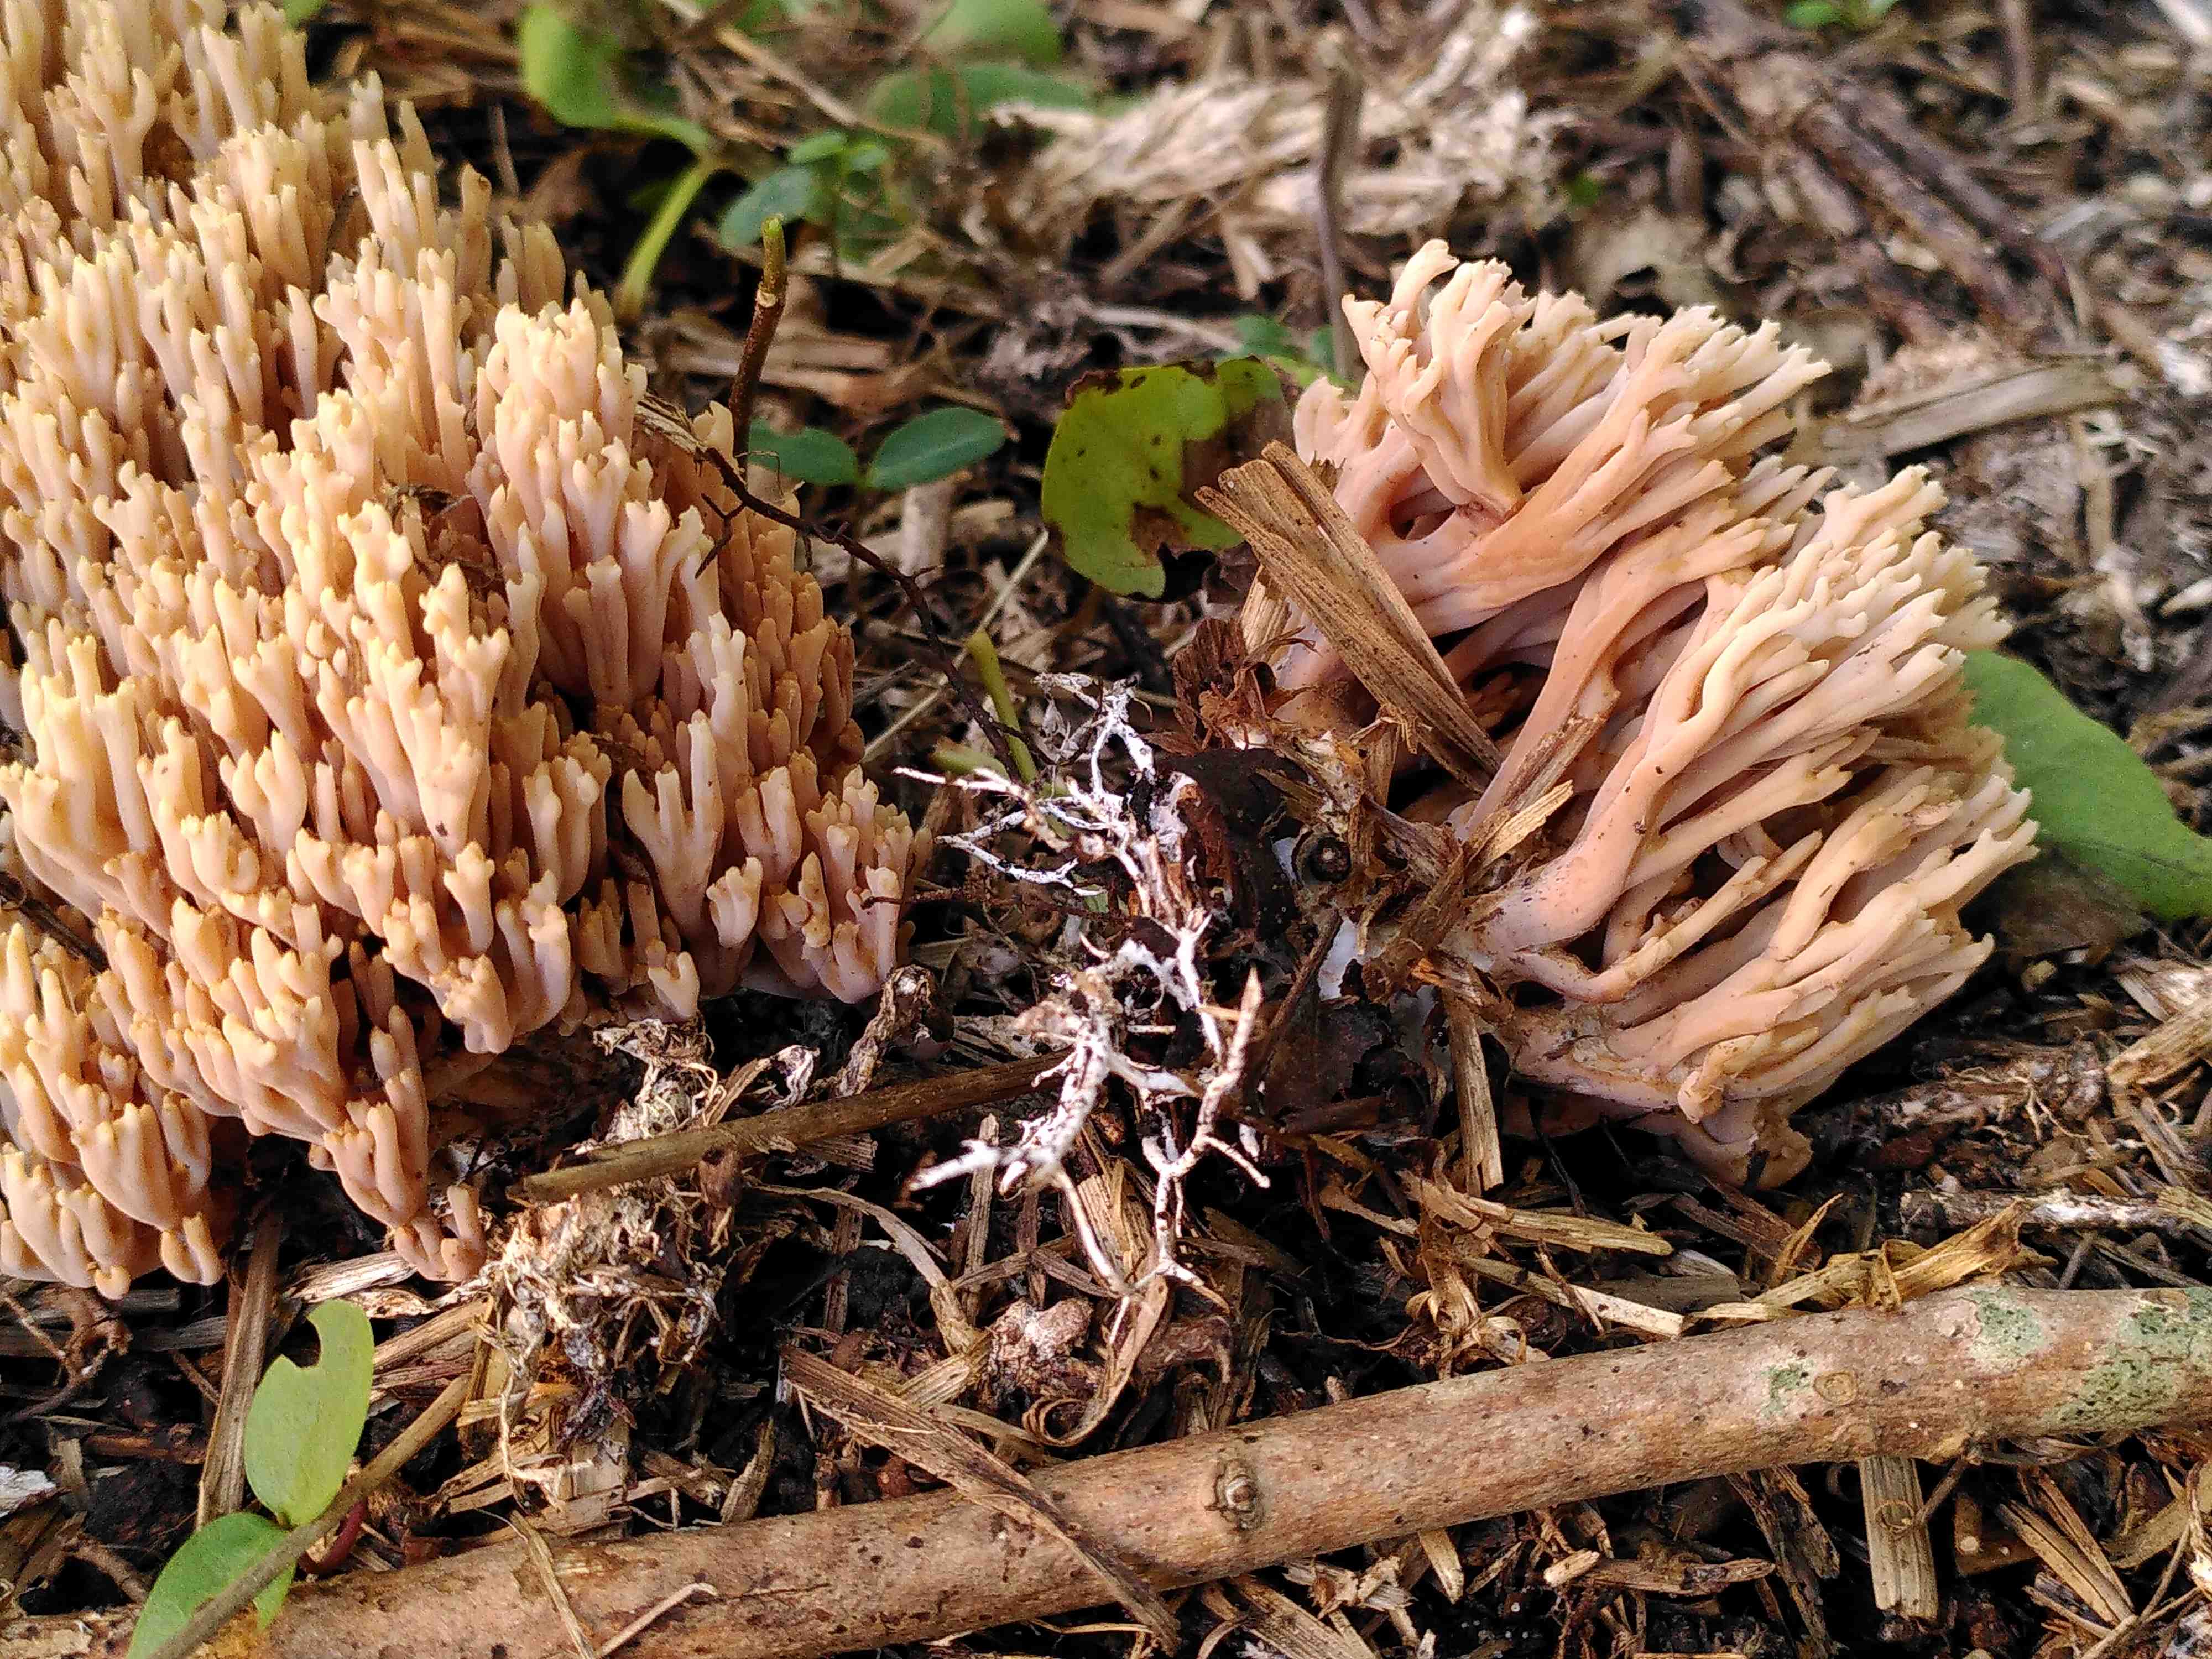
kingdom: Fungi
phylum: Basidiomycota
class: Agaricomycetes
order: Gomphales
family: Gomphaceae
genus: Ramaria
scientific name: Ramaria stricta
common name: rank koralsvamp
